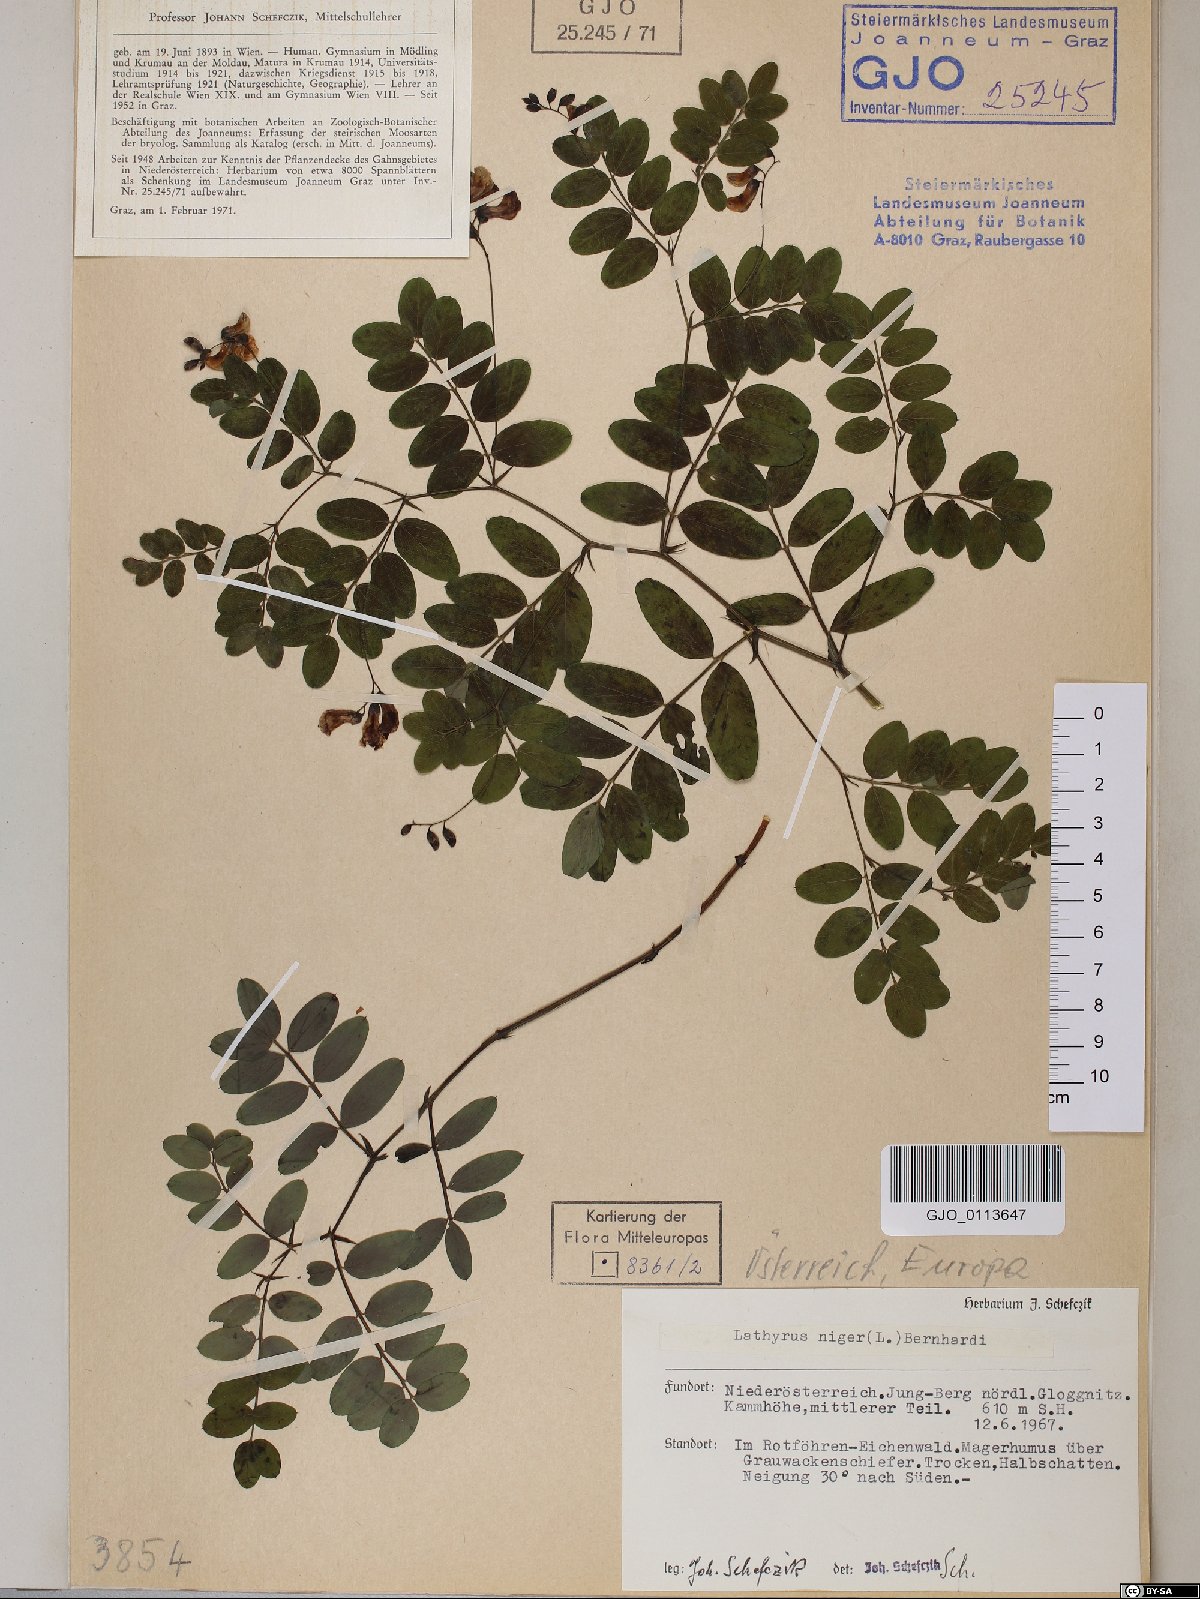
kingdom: Plantae
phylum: Tracheophyta
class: Magnoliopsida
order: Fabales
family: Fabaceae
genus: Lathyrus
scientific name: Lathyrus niger
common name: Black pea
